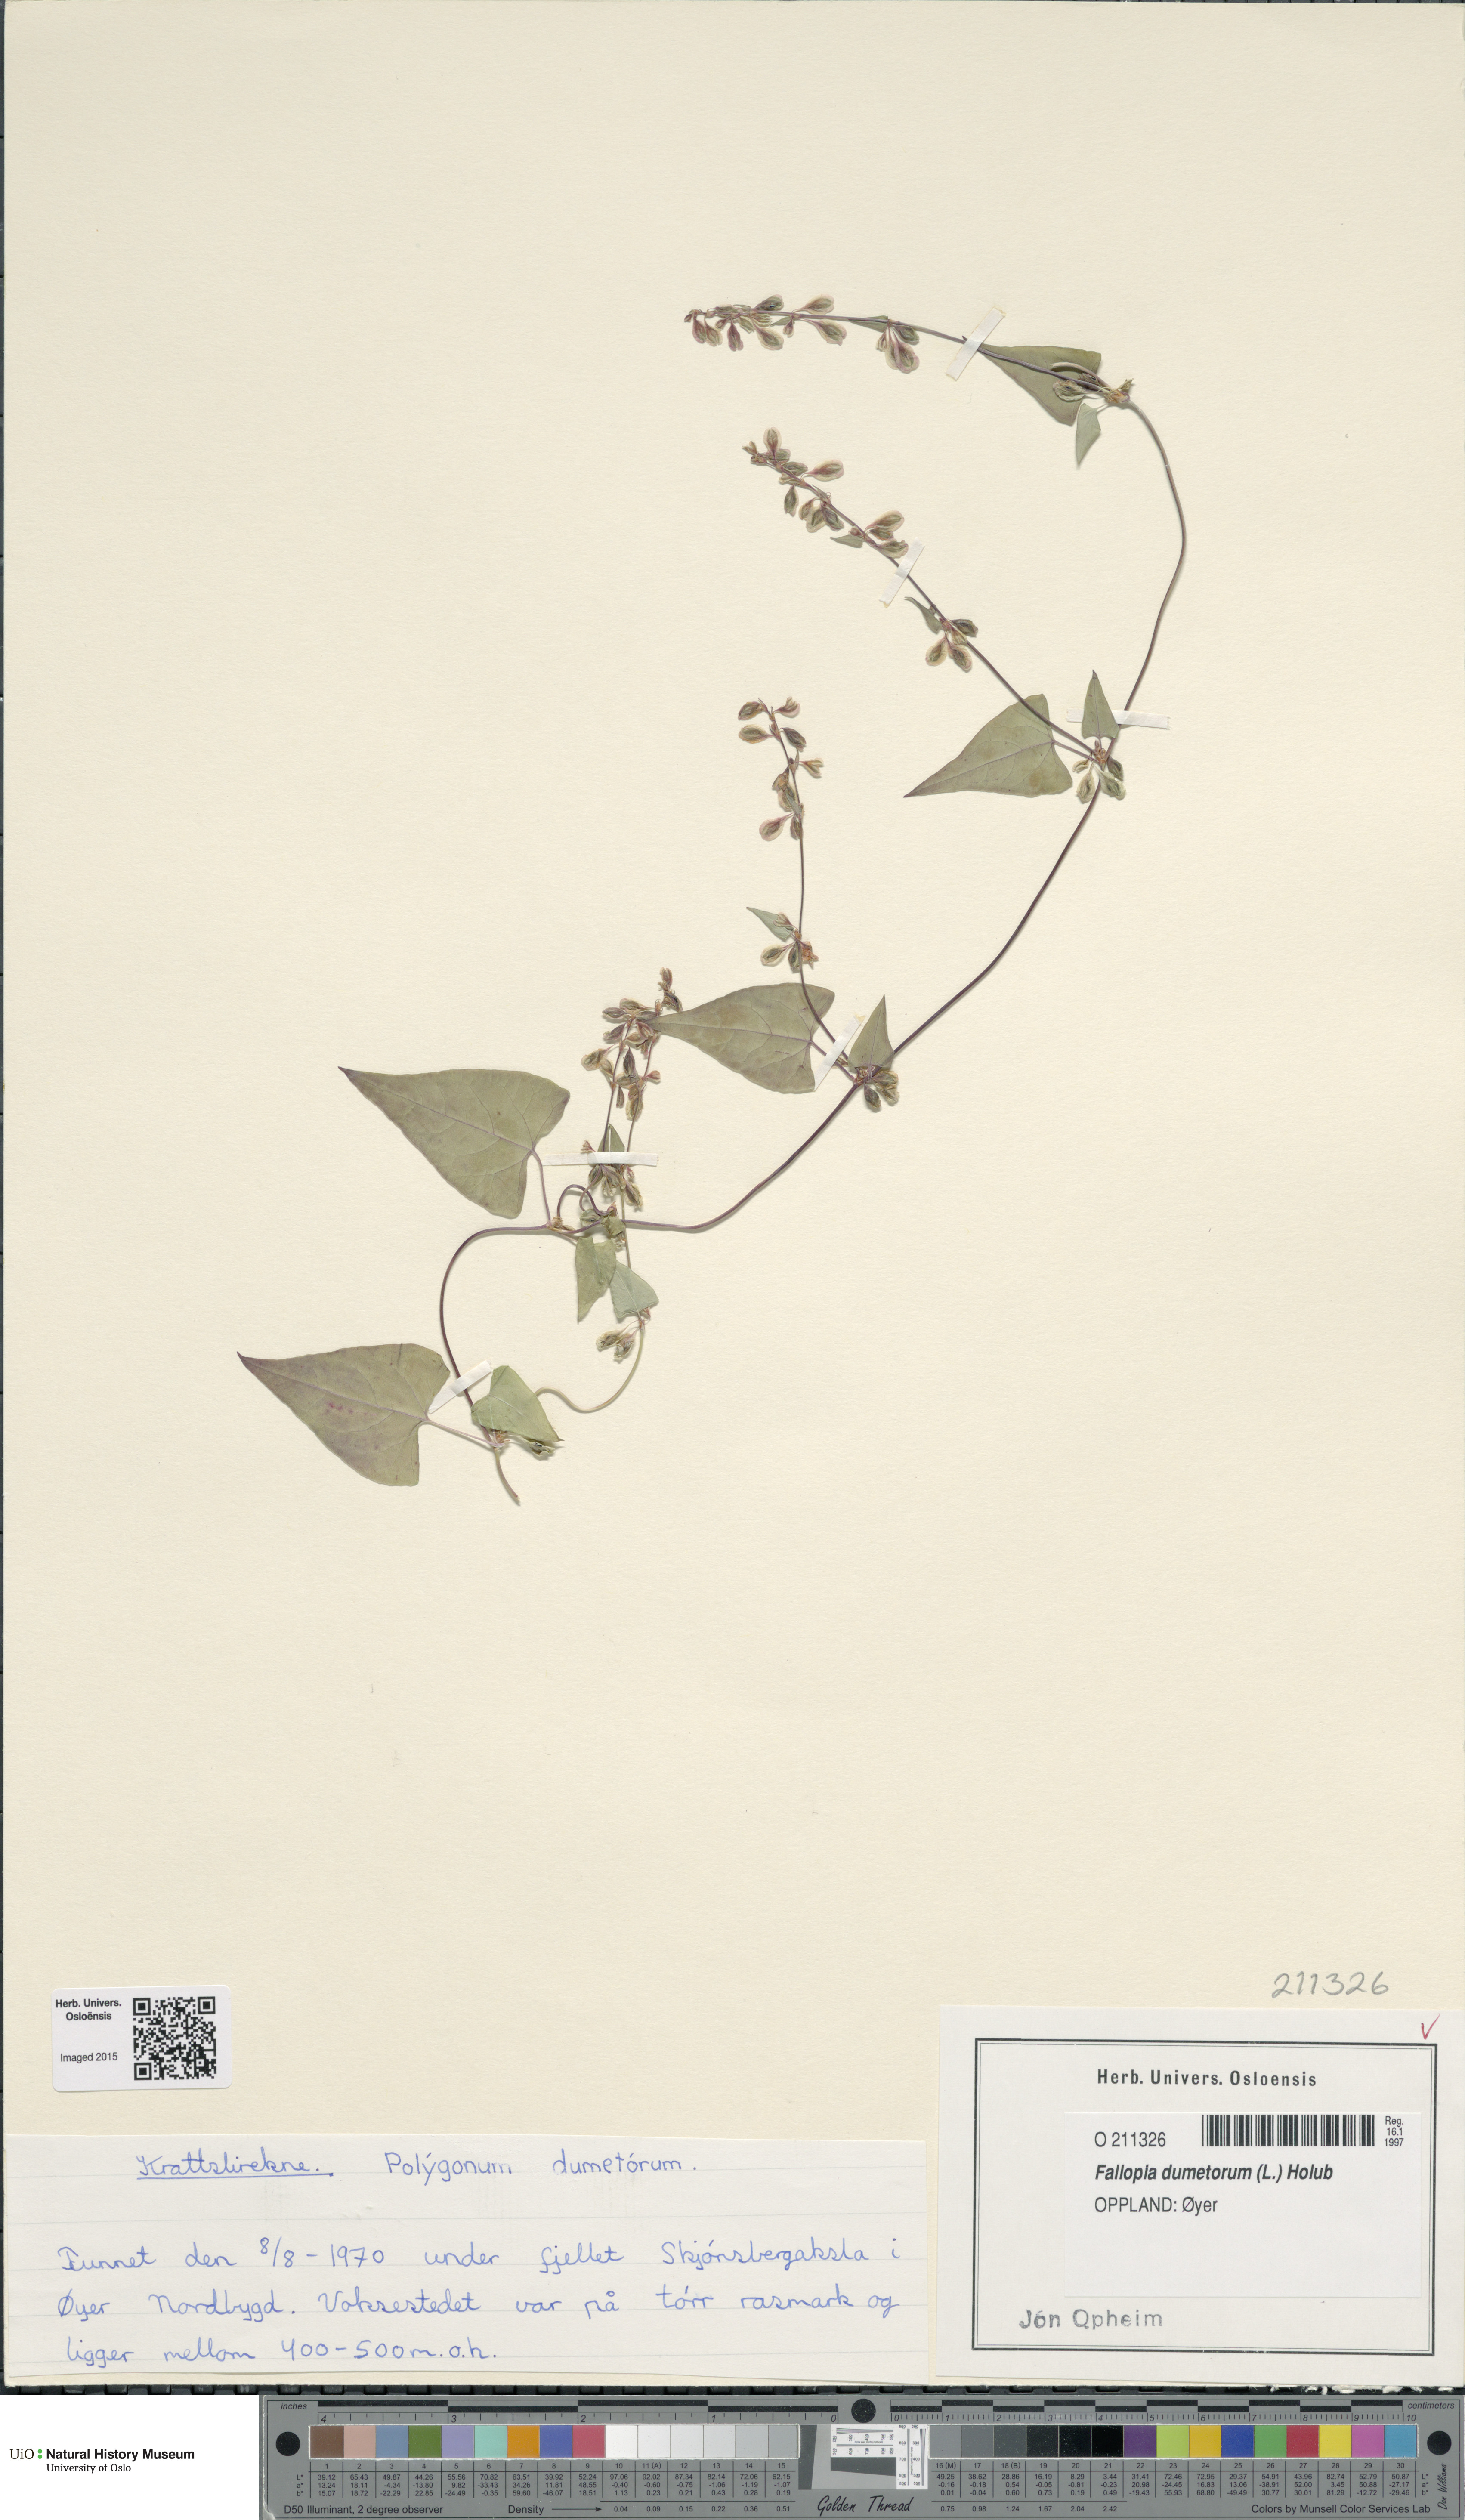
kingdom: Plantae
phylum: Tracheophyta
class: Magnoliopsida
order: Caryophyllales
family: Polygonaceae
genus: Fallopia
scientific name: Fallopia dumetorum
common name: Copse-bindweed
